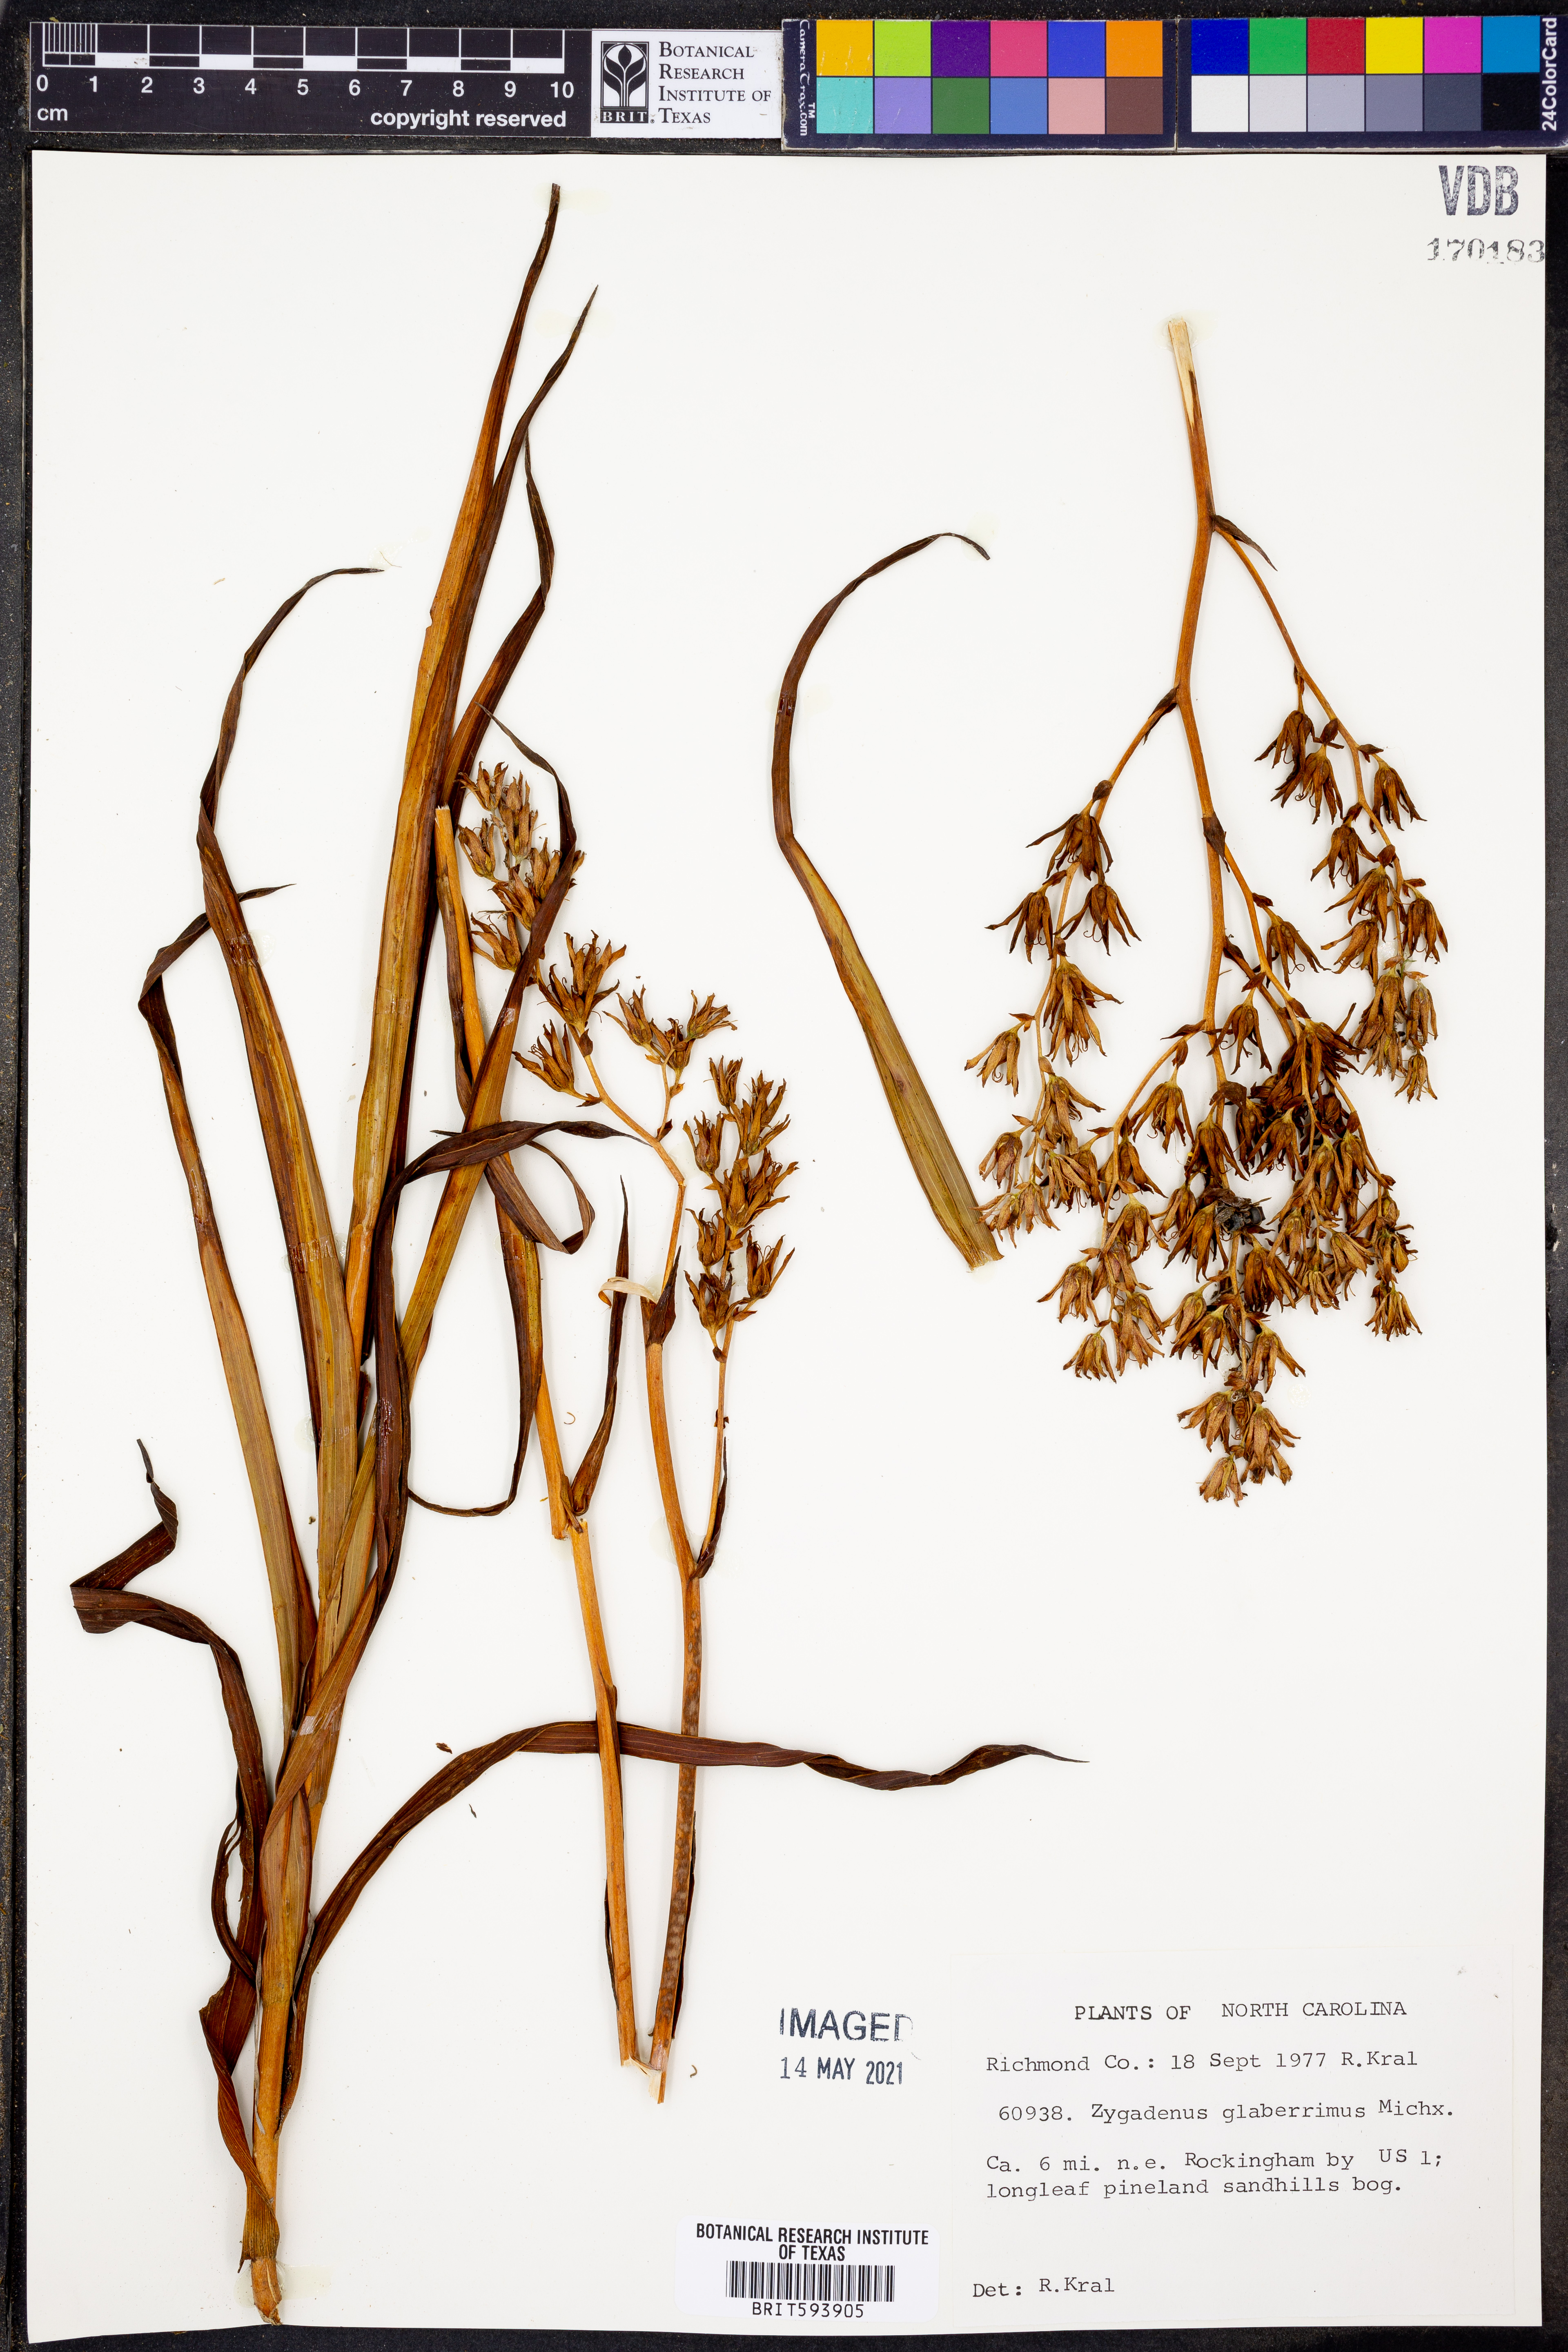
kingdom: Plantae
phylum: Tracheophyta
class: Liliopsida
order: Liliales
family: Melanthiaceae
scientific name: Melanthiaceae
